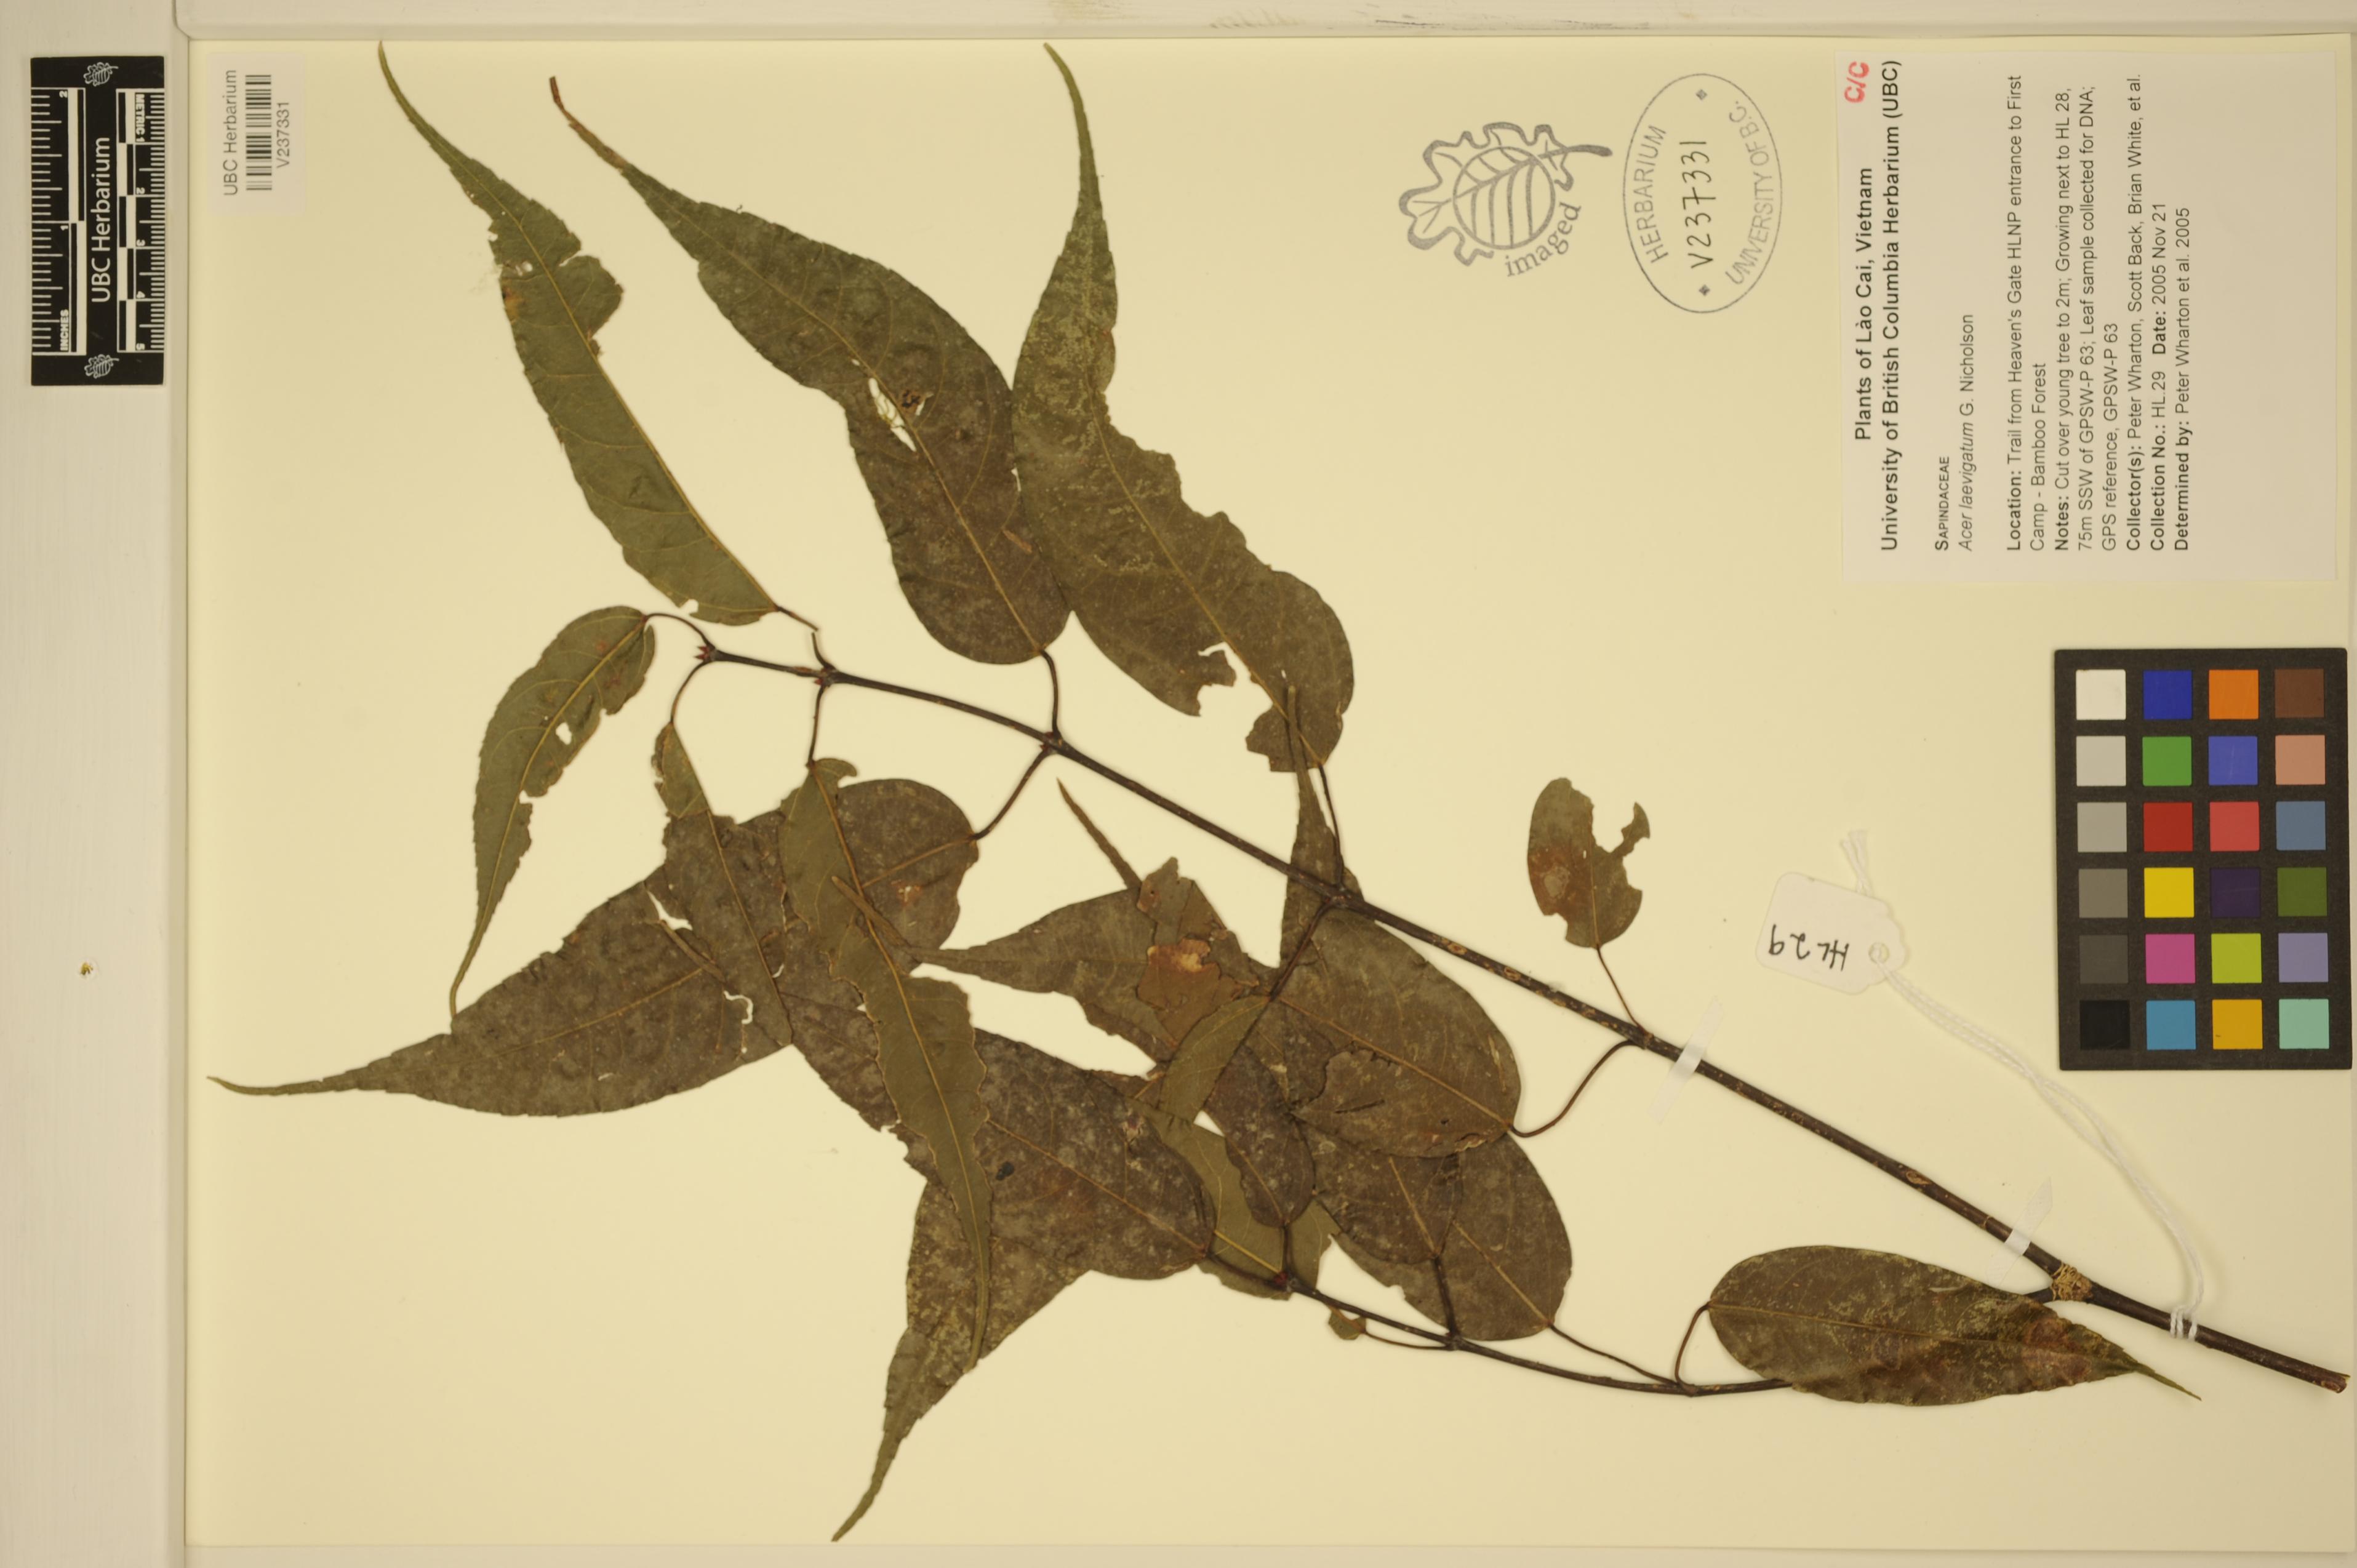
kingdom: Plantae
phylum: Tracheophyta
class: Magnoliopsida
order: Sapindales
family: Sapindaceae
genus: Acer
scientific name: Acer laevigatum
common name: Nepal maple
